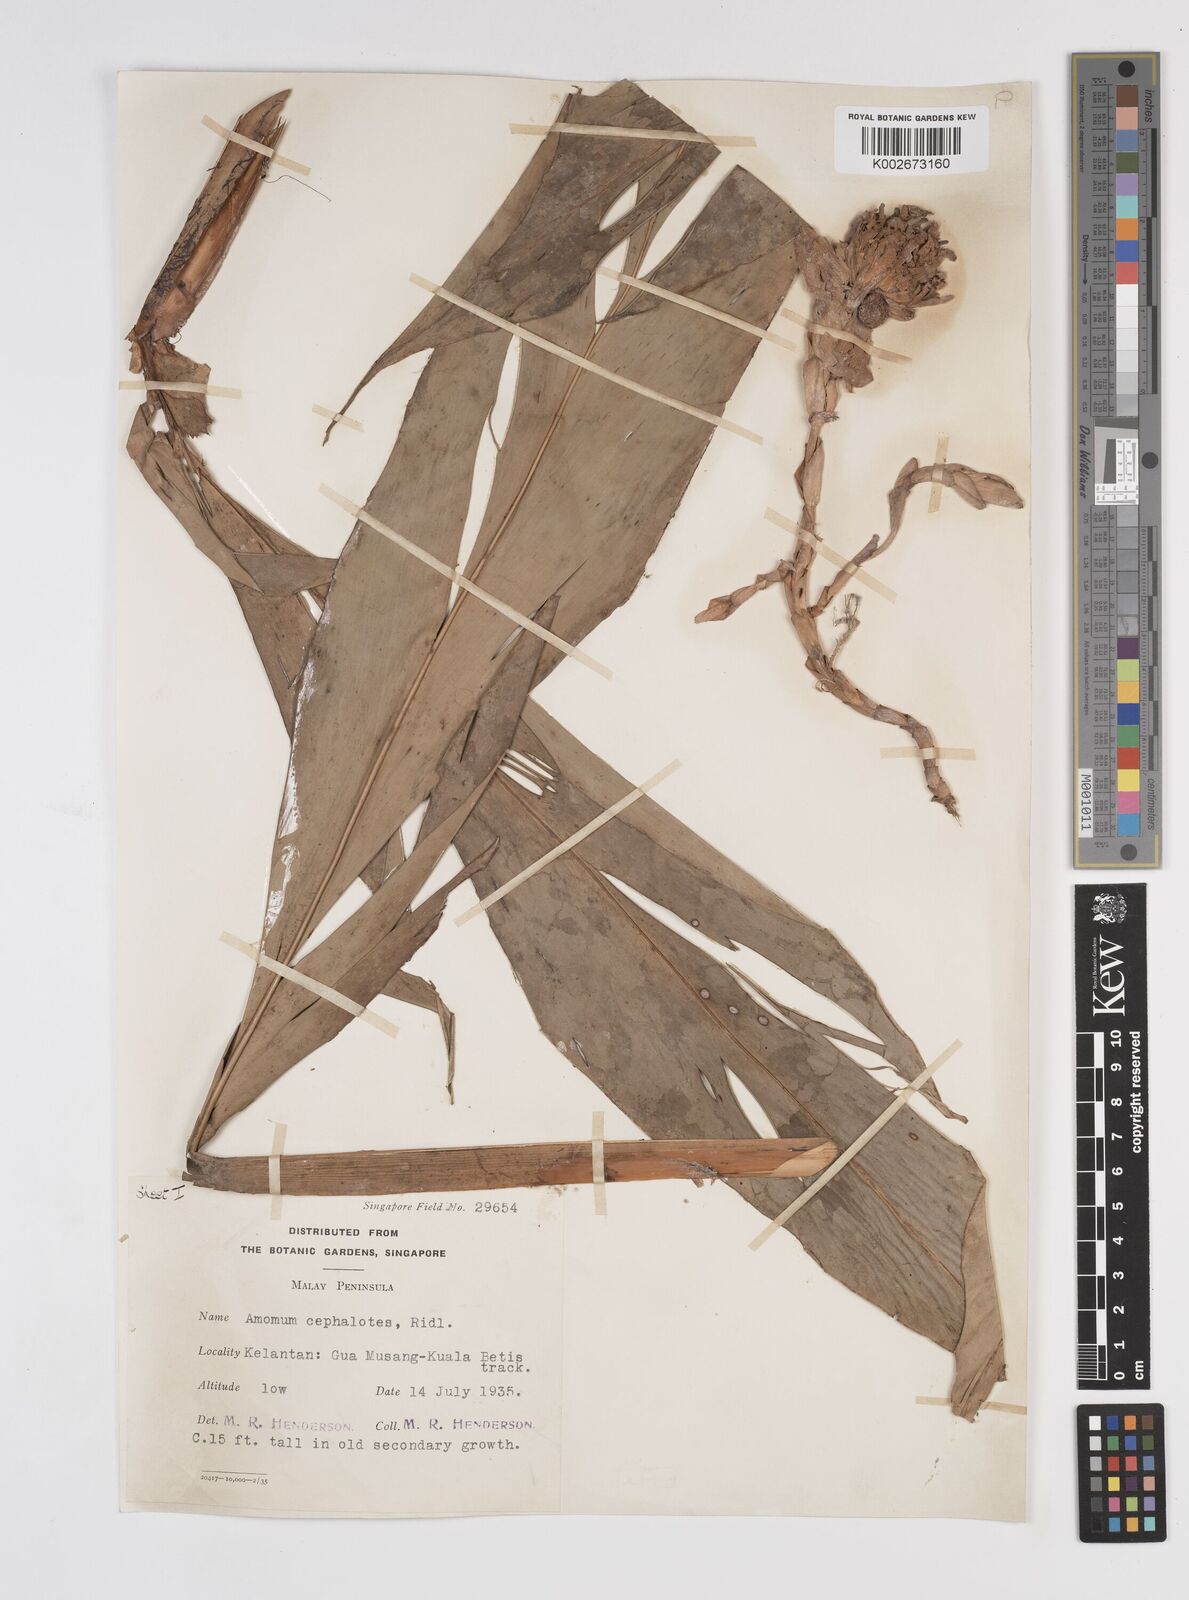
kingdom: Plantae
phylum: Tracheophyta
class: Liliopsida
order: Zingiberales
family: Zingiberaceae
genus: Amomum
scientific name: Amomum cephalotes
